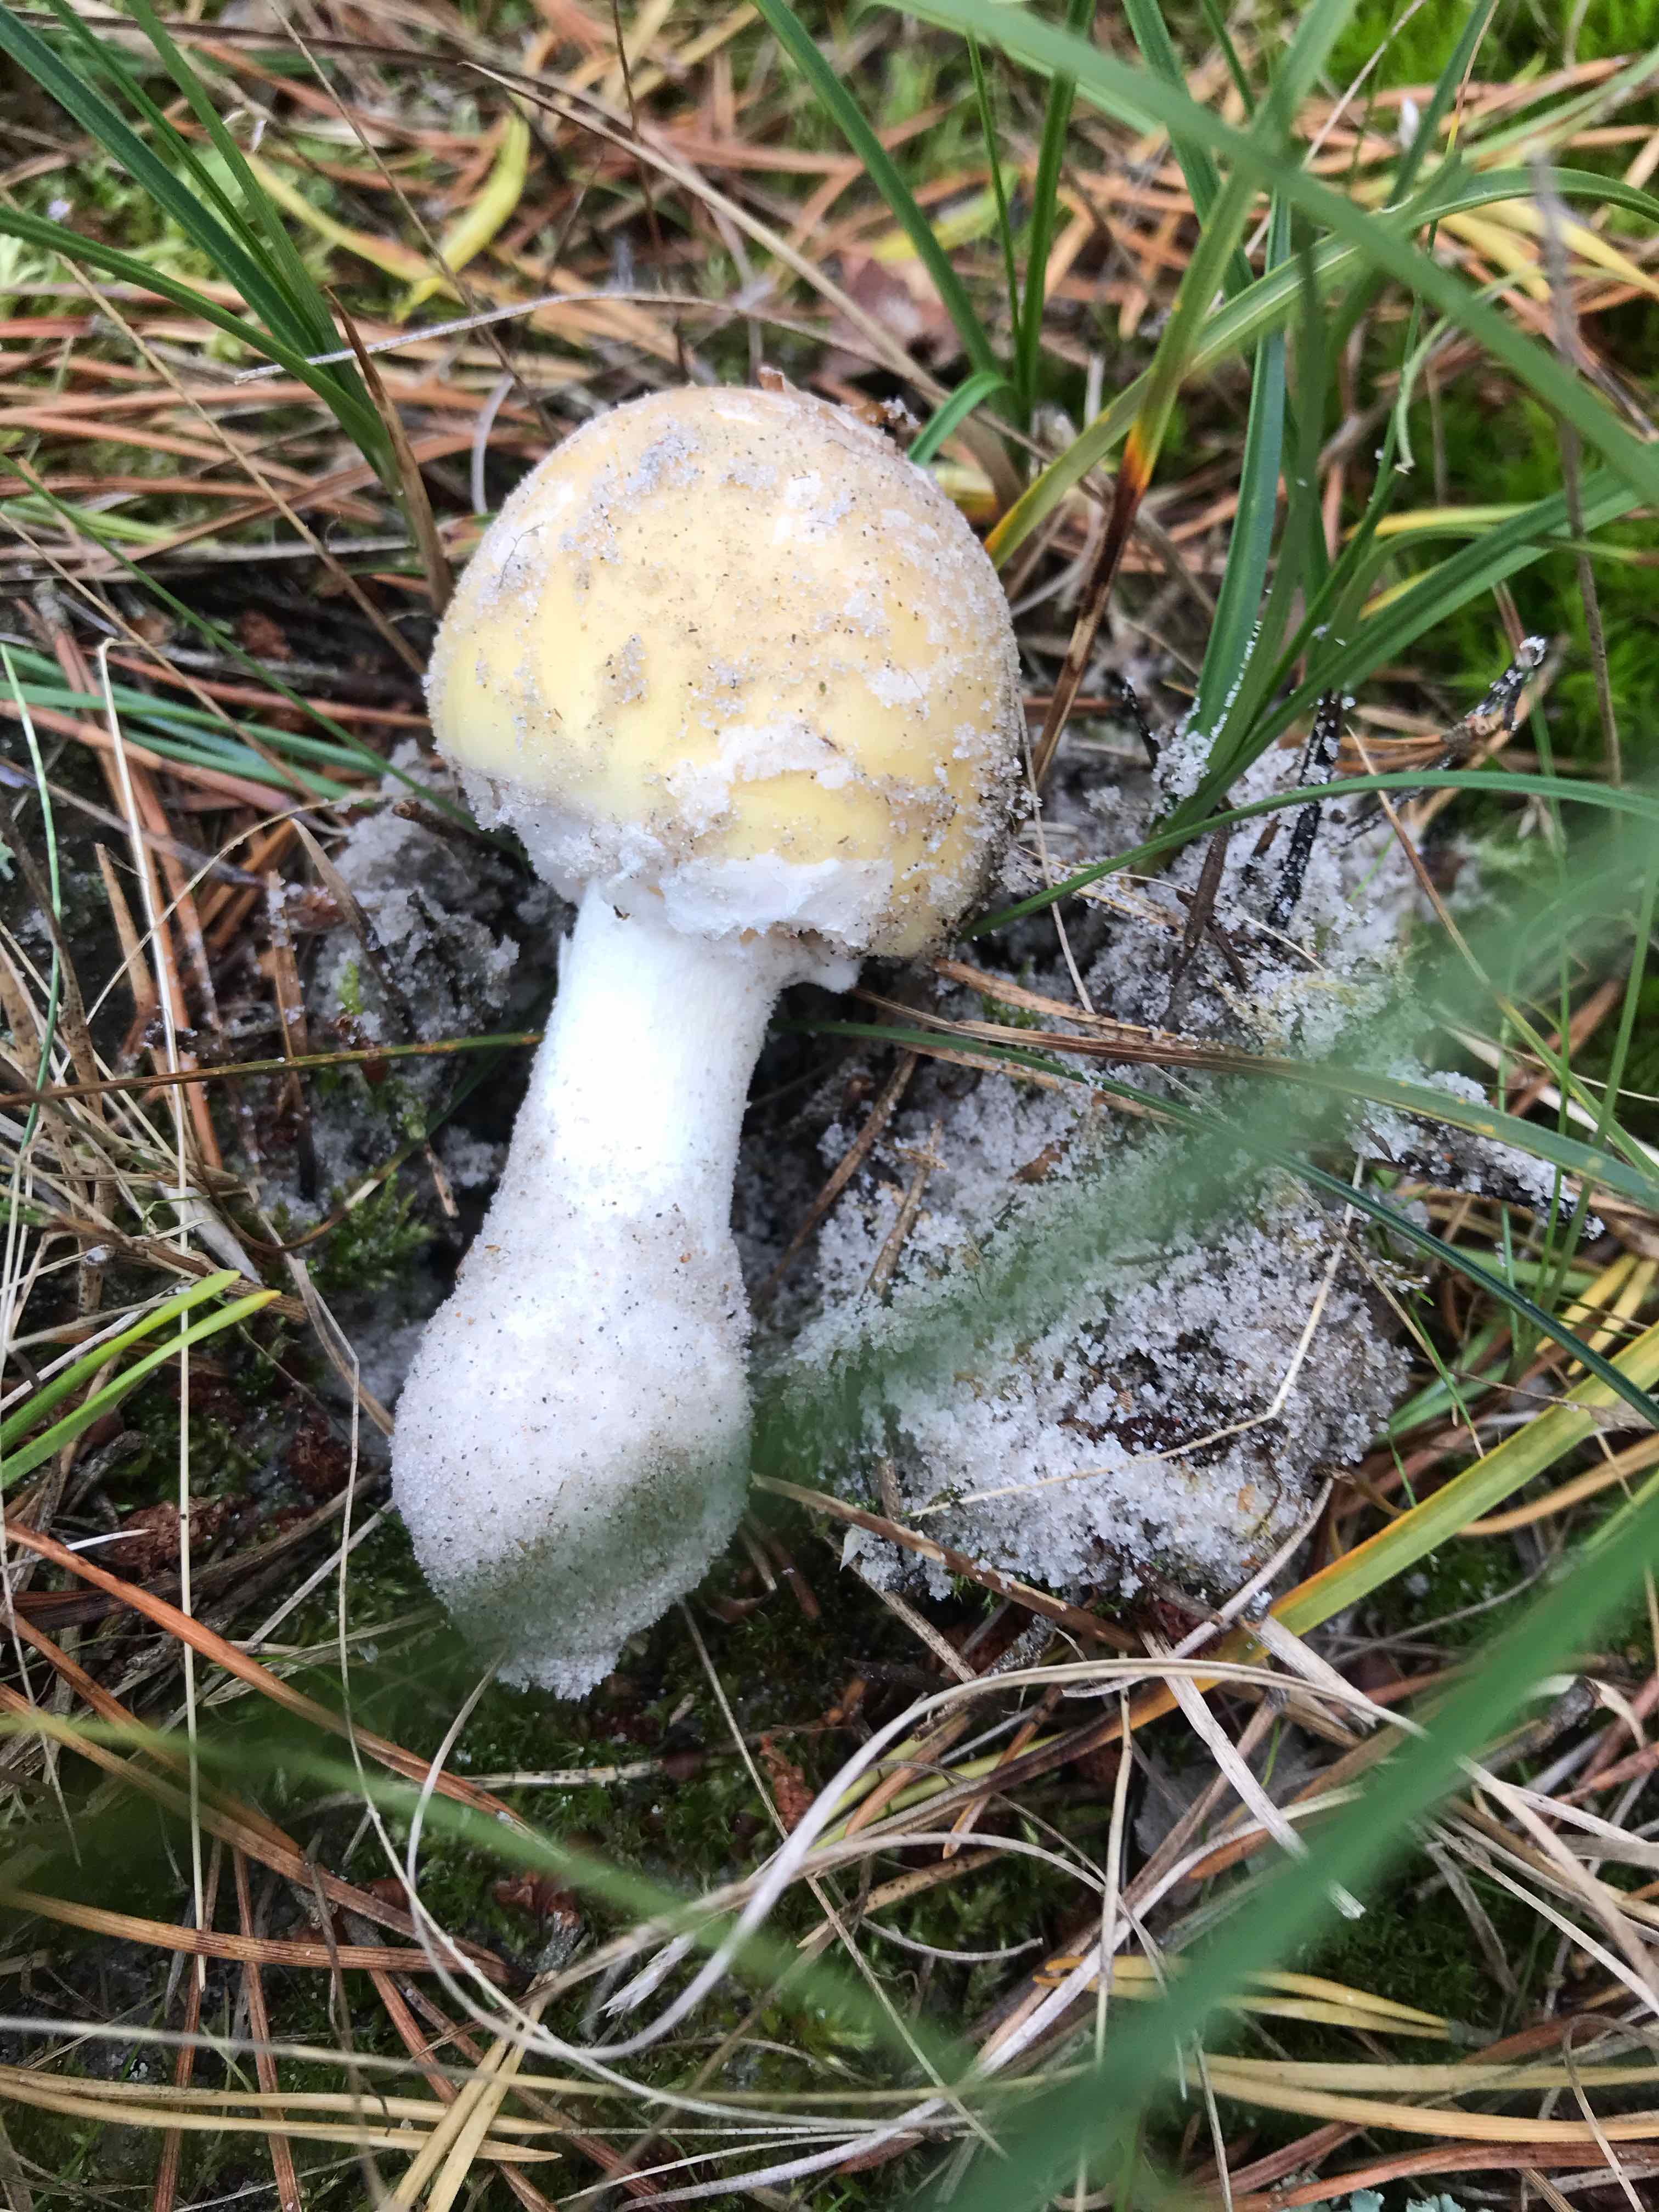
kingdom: Fungi
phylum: Basidiomycota
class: Agaricomycetes
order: Agaricales
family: Amanitaceae
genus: Amanita
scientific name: Amanita gemmata
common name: okkergul fluesvamp
